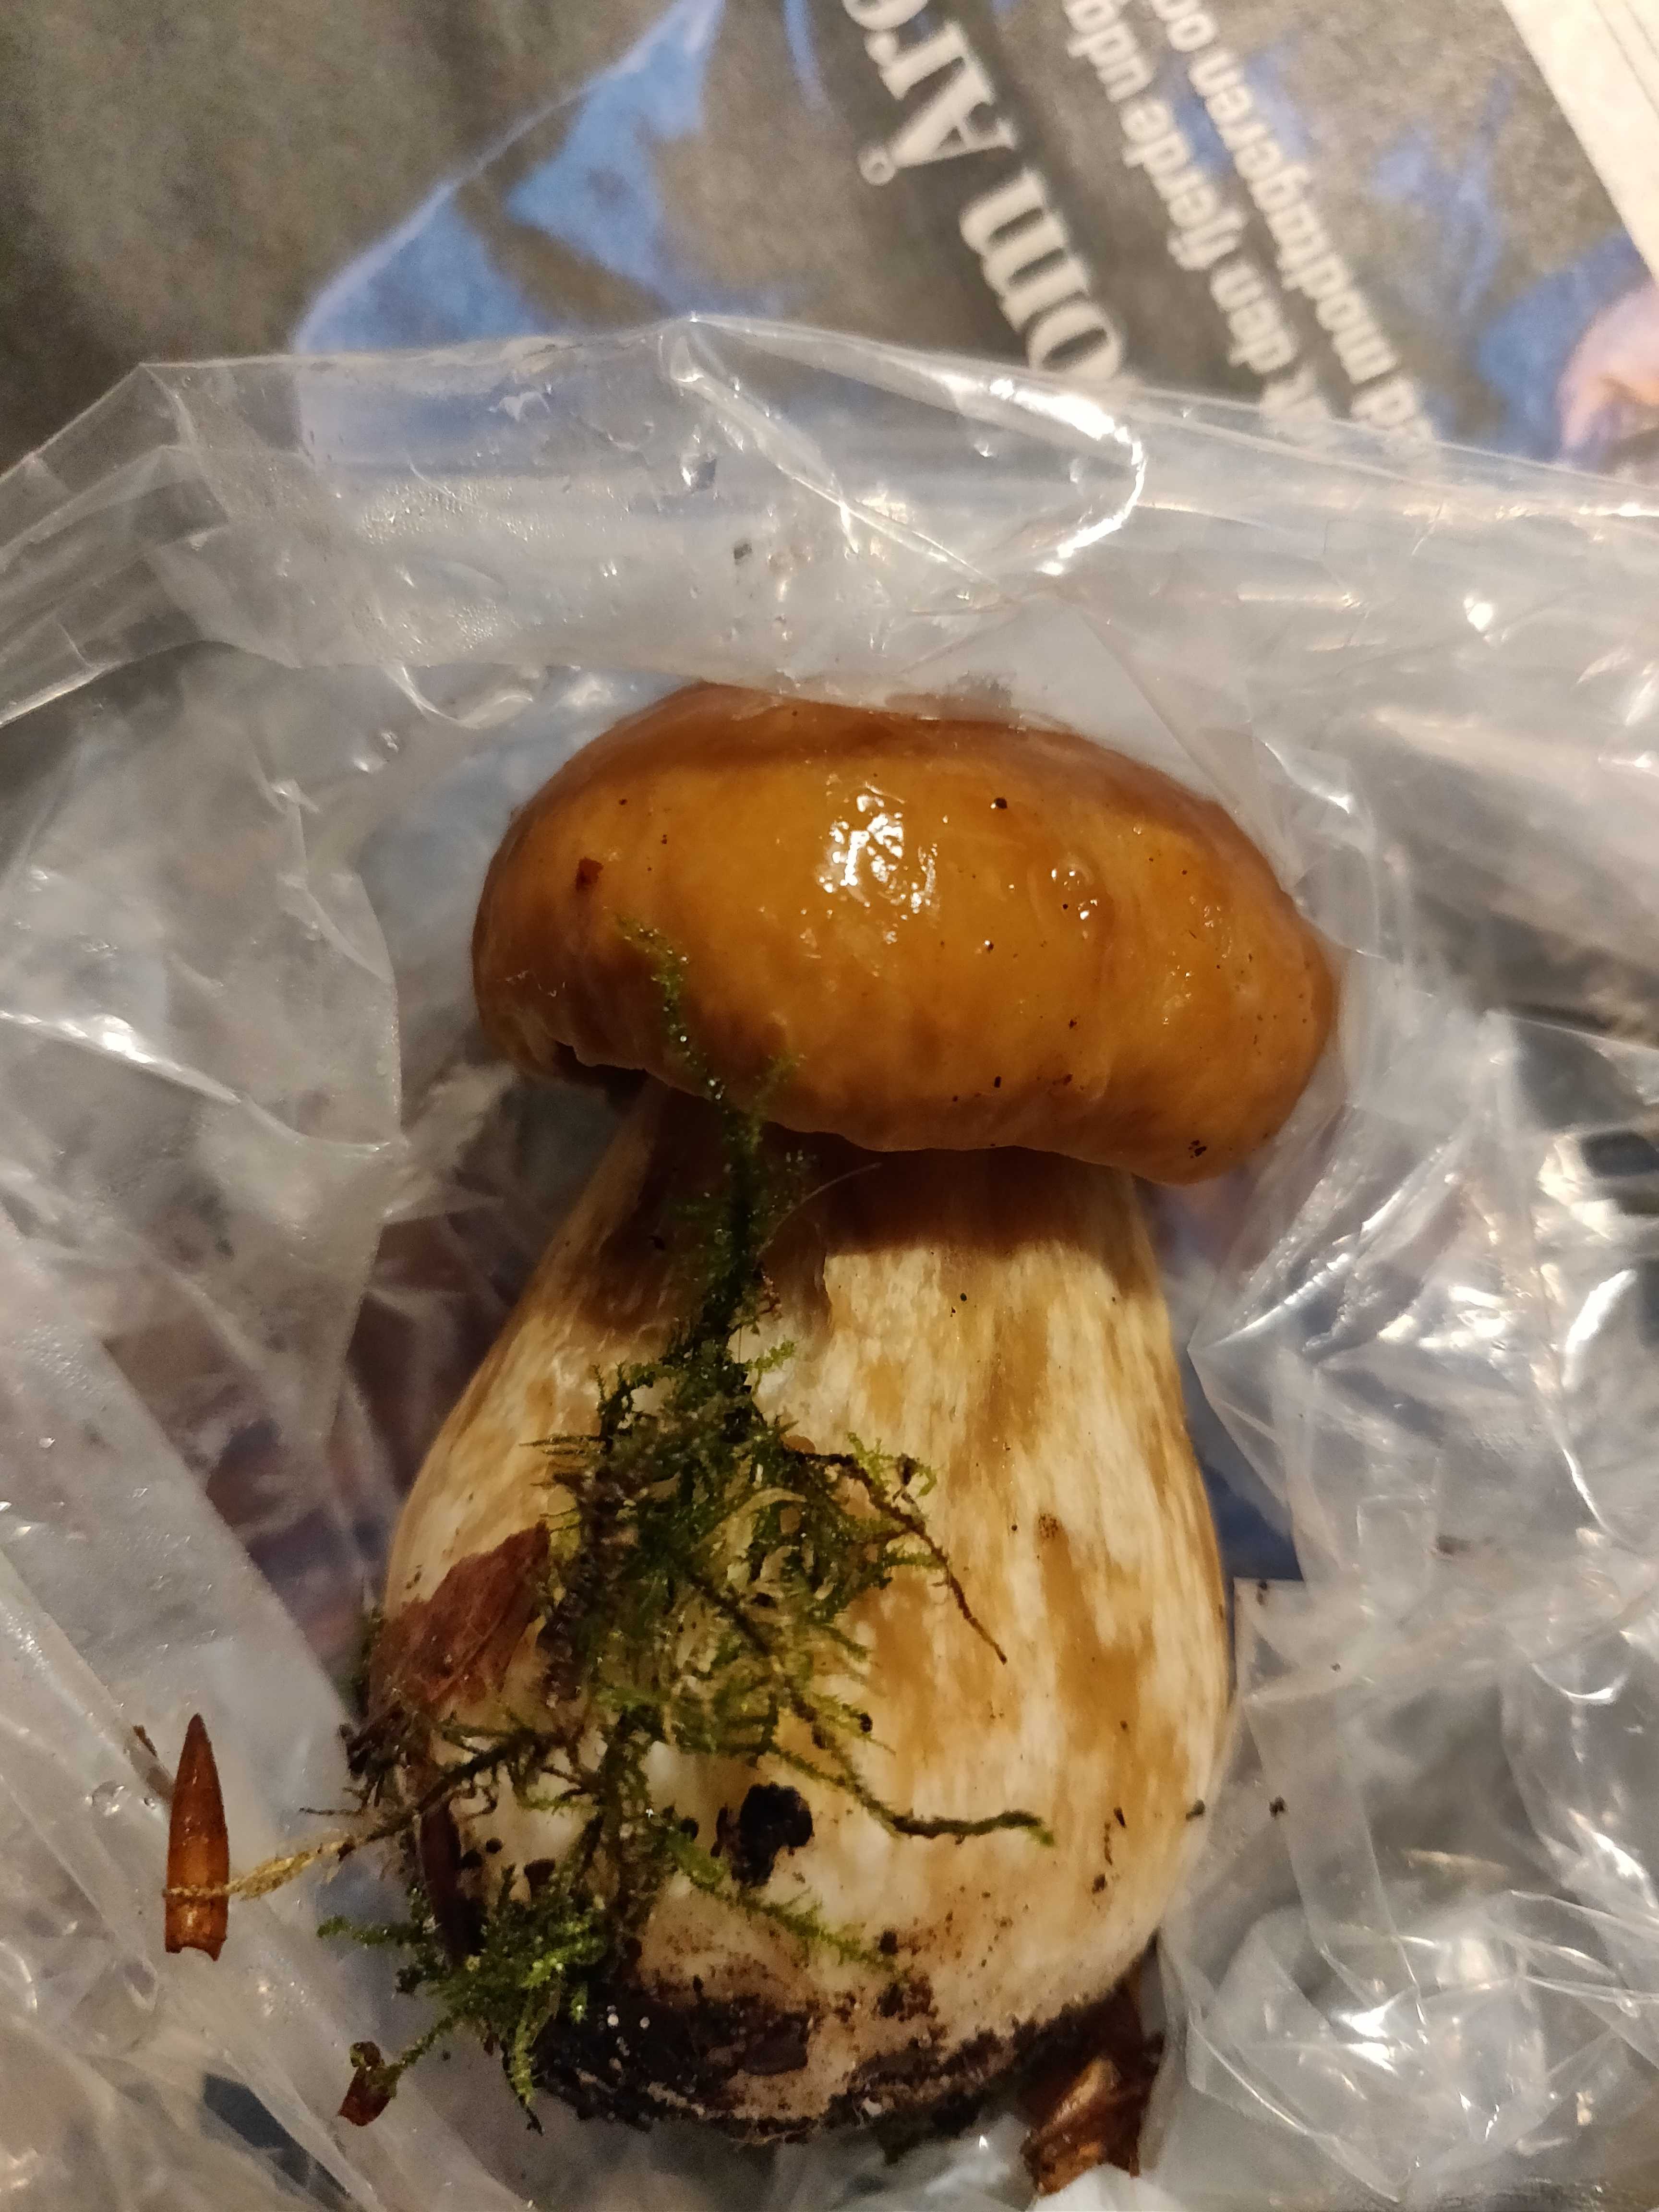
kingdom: Fungi
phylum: Basidiomycota
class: Agaricomycetes
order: Boletales
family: Boletaceae
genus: Boletus
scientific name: Boletus edulis
